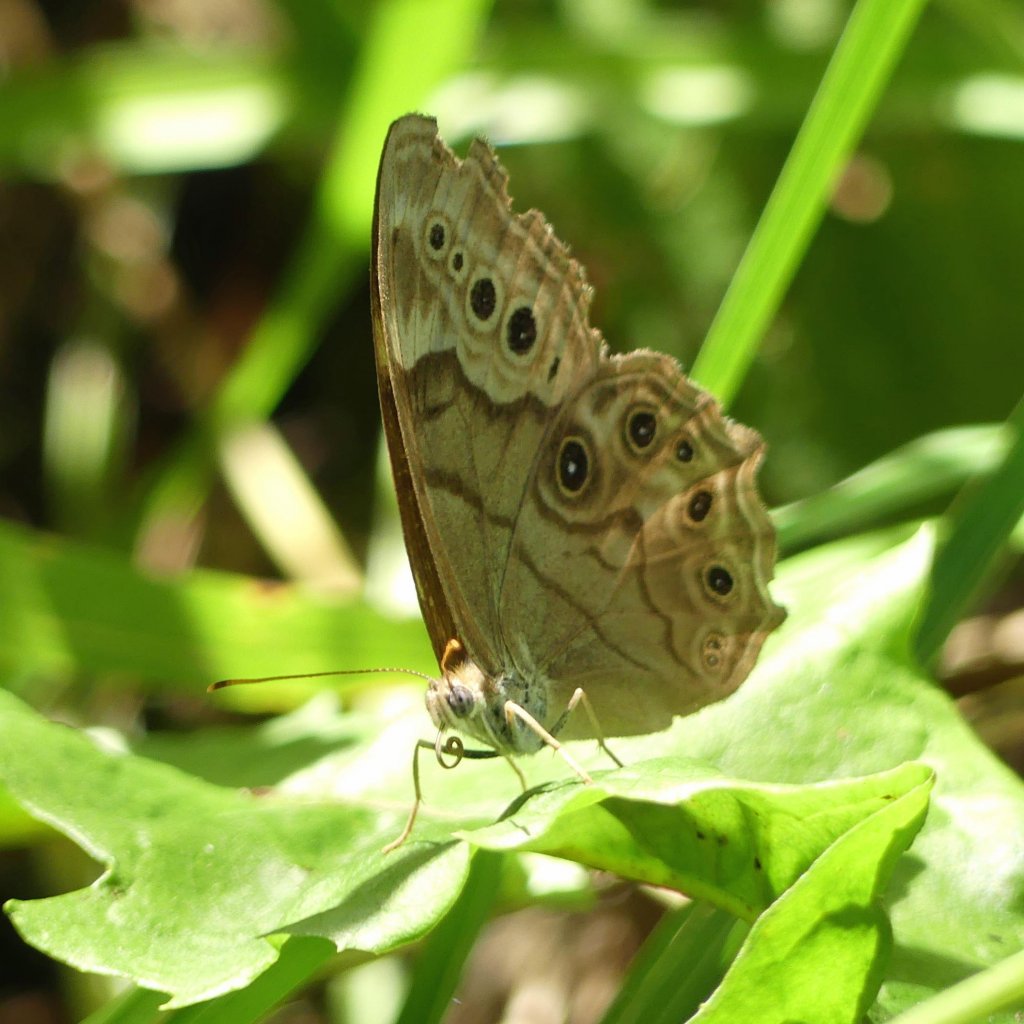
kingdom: Animalia
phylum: Arthropoda
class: Insecta
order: Lepidoptera
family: Nymphalidae
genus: Lethe
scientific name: Lethe anthedon
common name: Northern Pearly-Eye
